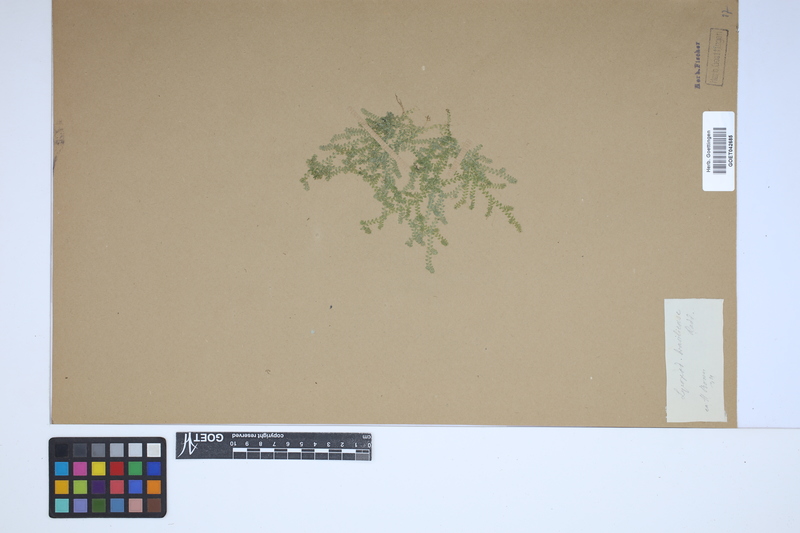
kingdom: Plantae
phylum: Tracheophyta
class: Lycopodiopsida
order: Selaginellales
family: Selaginellaceae
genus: Selaginella
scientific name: Selaginella muscosa
